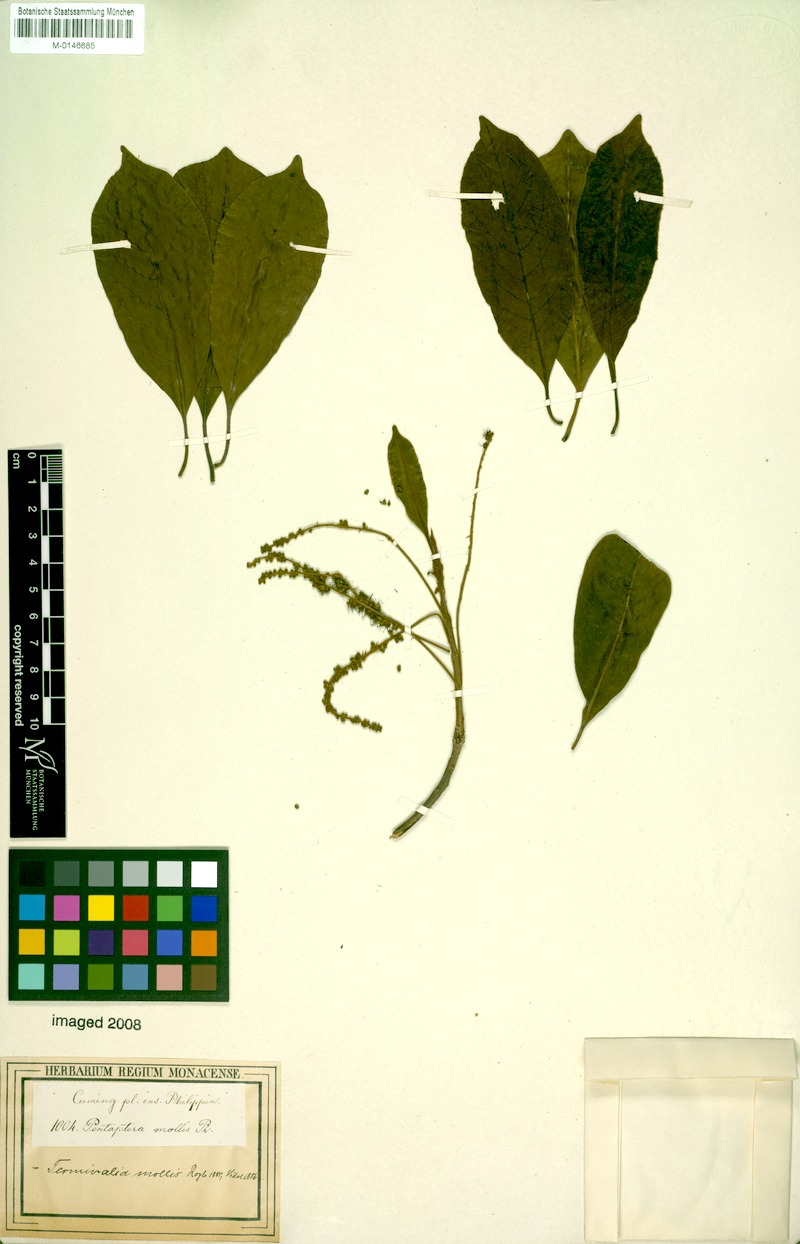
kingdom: Plantae
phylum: Tracheophyta
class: Magnoliopsida
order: Myrtales
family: Combretaceae
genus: Terminalia
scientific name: Terminalia
